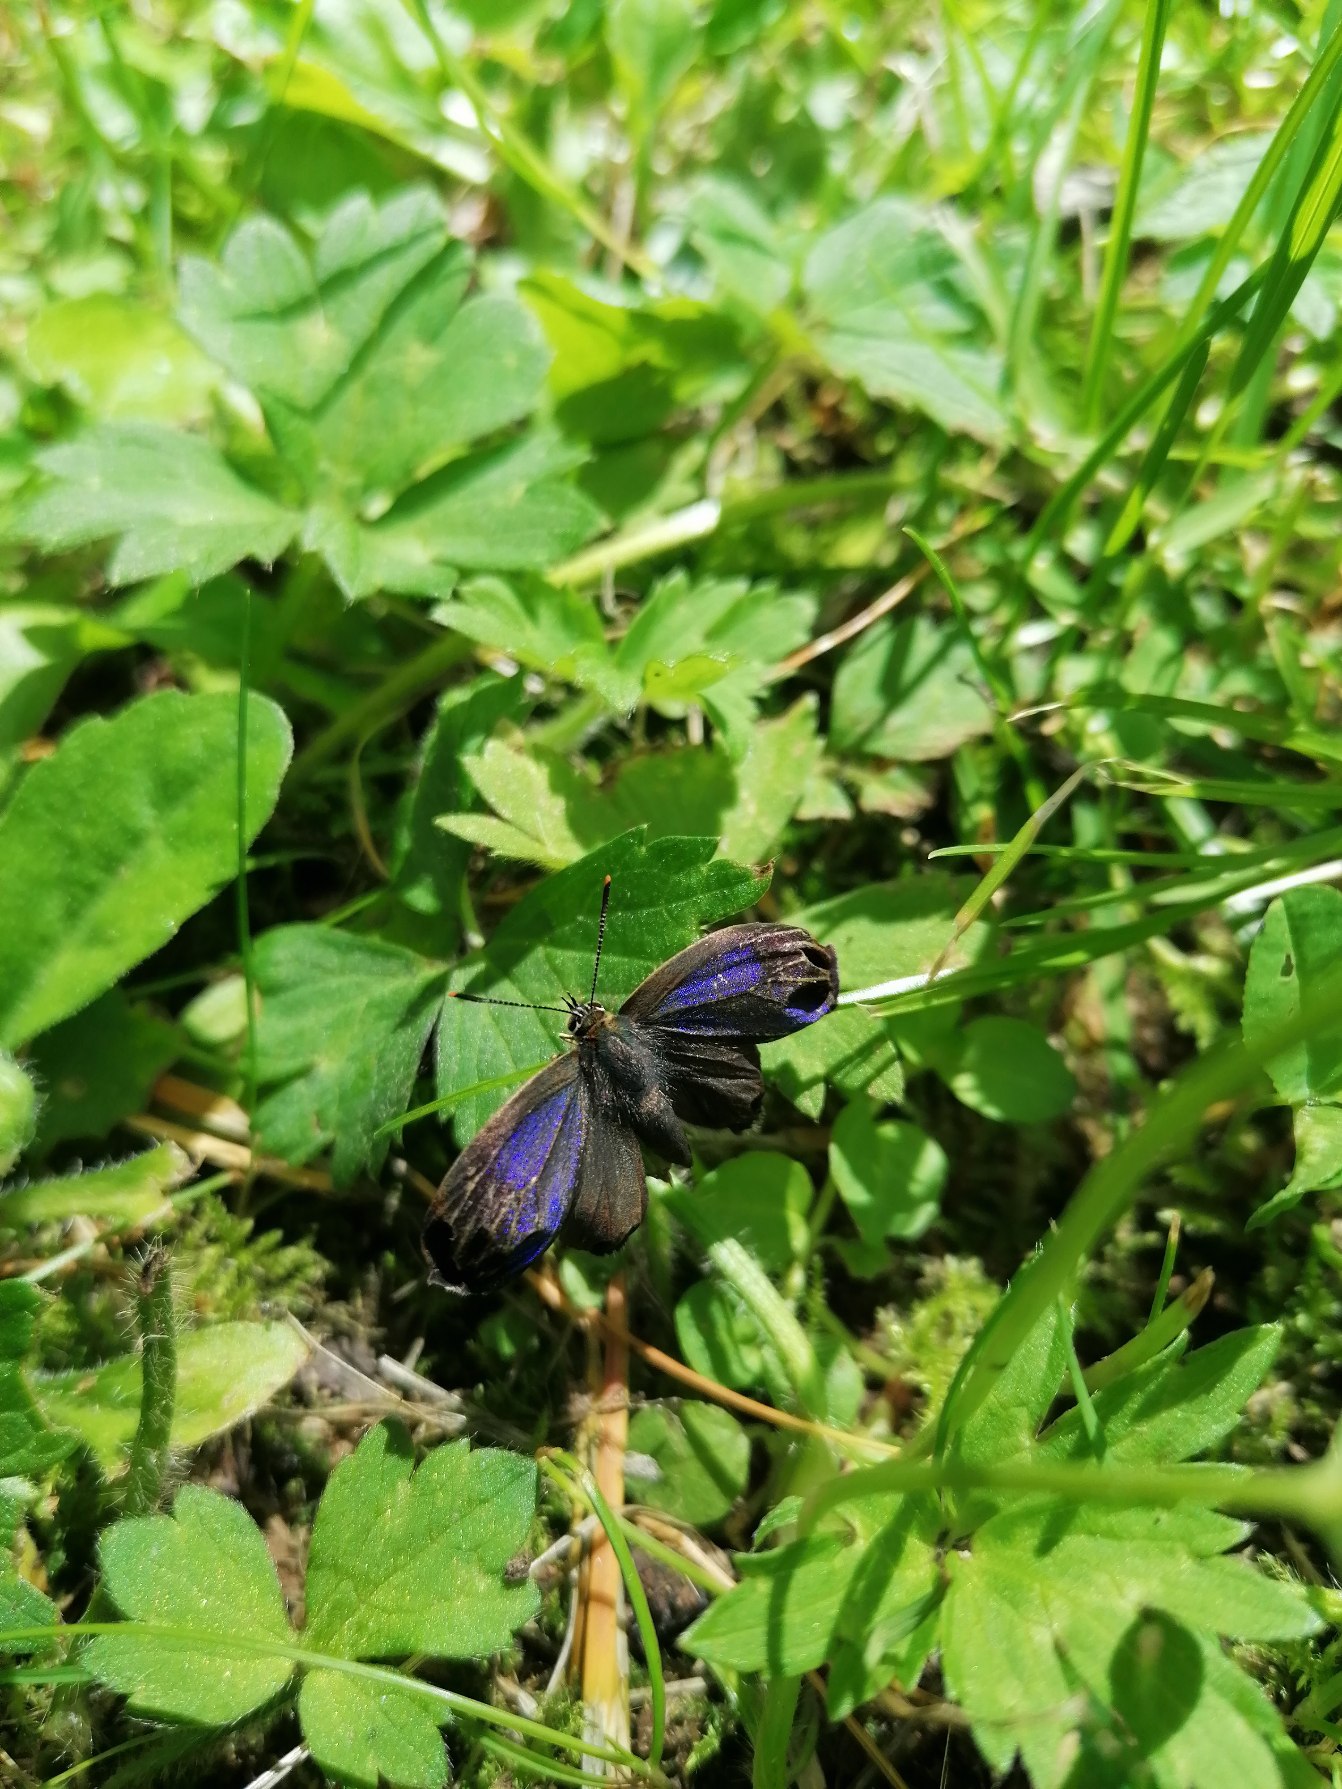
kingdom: Animalia
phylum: Arthropoda
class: Insecta
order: Lepidoptera
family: Lycaenidae
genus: Quercusia
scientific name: Quercusia quercus
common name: Blåhale
